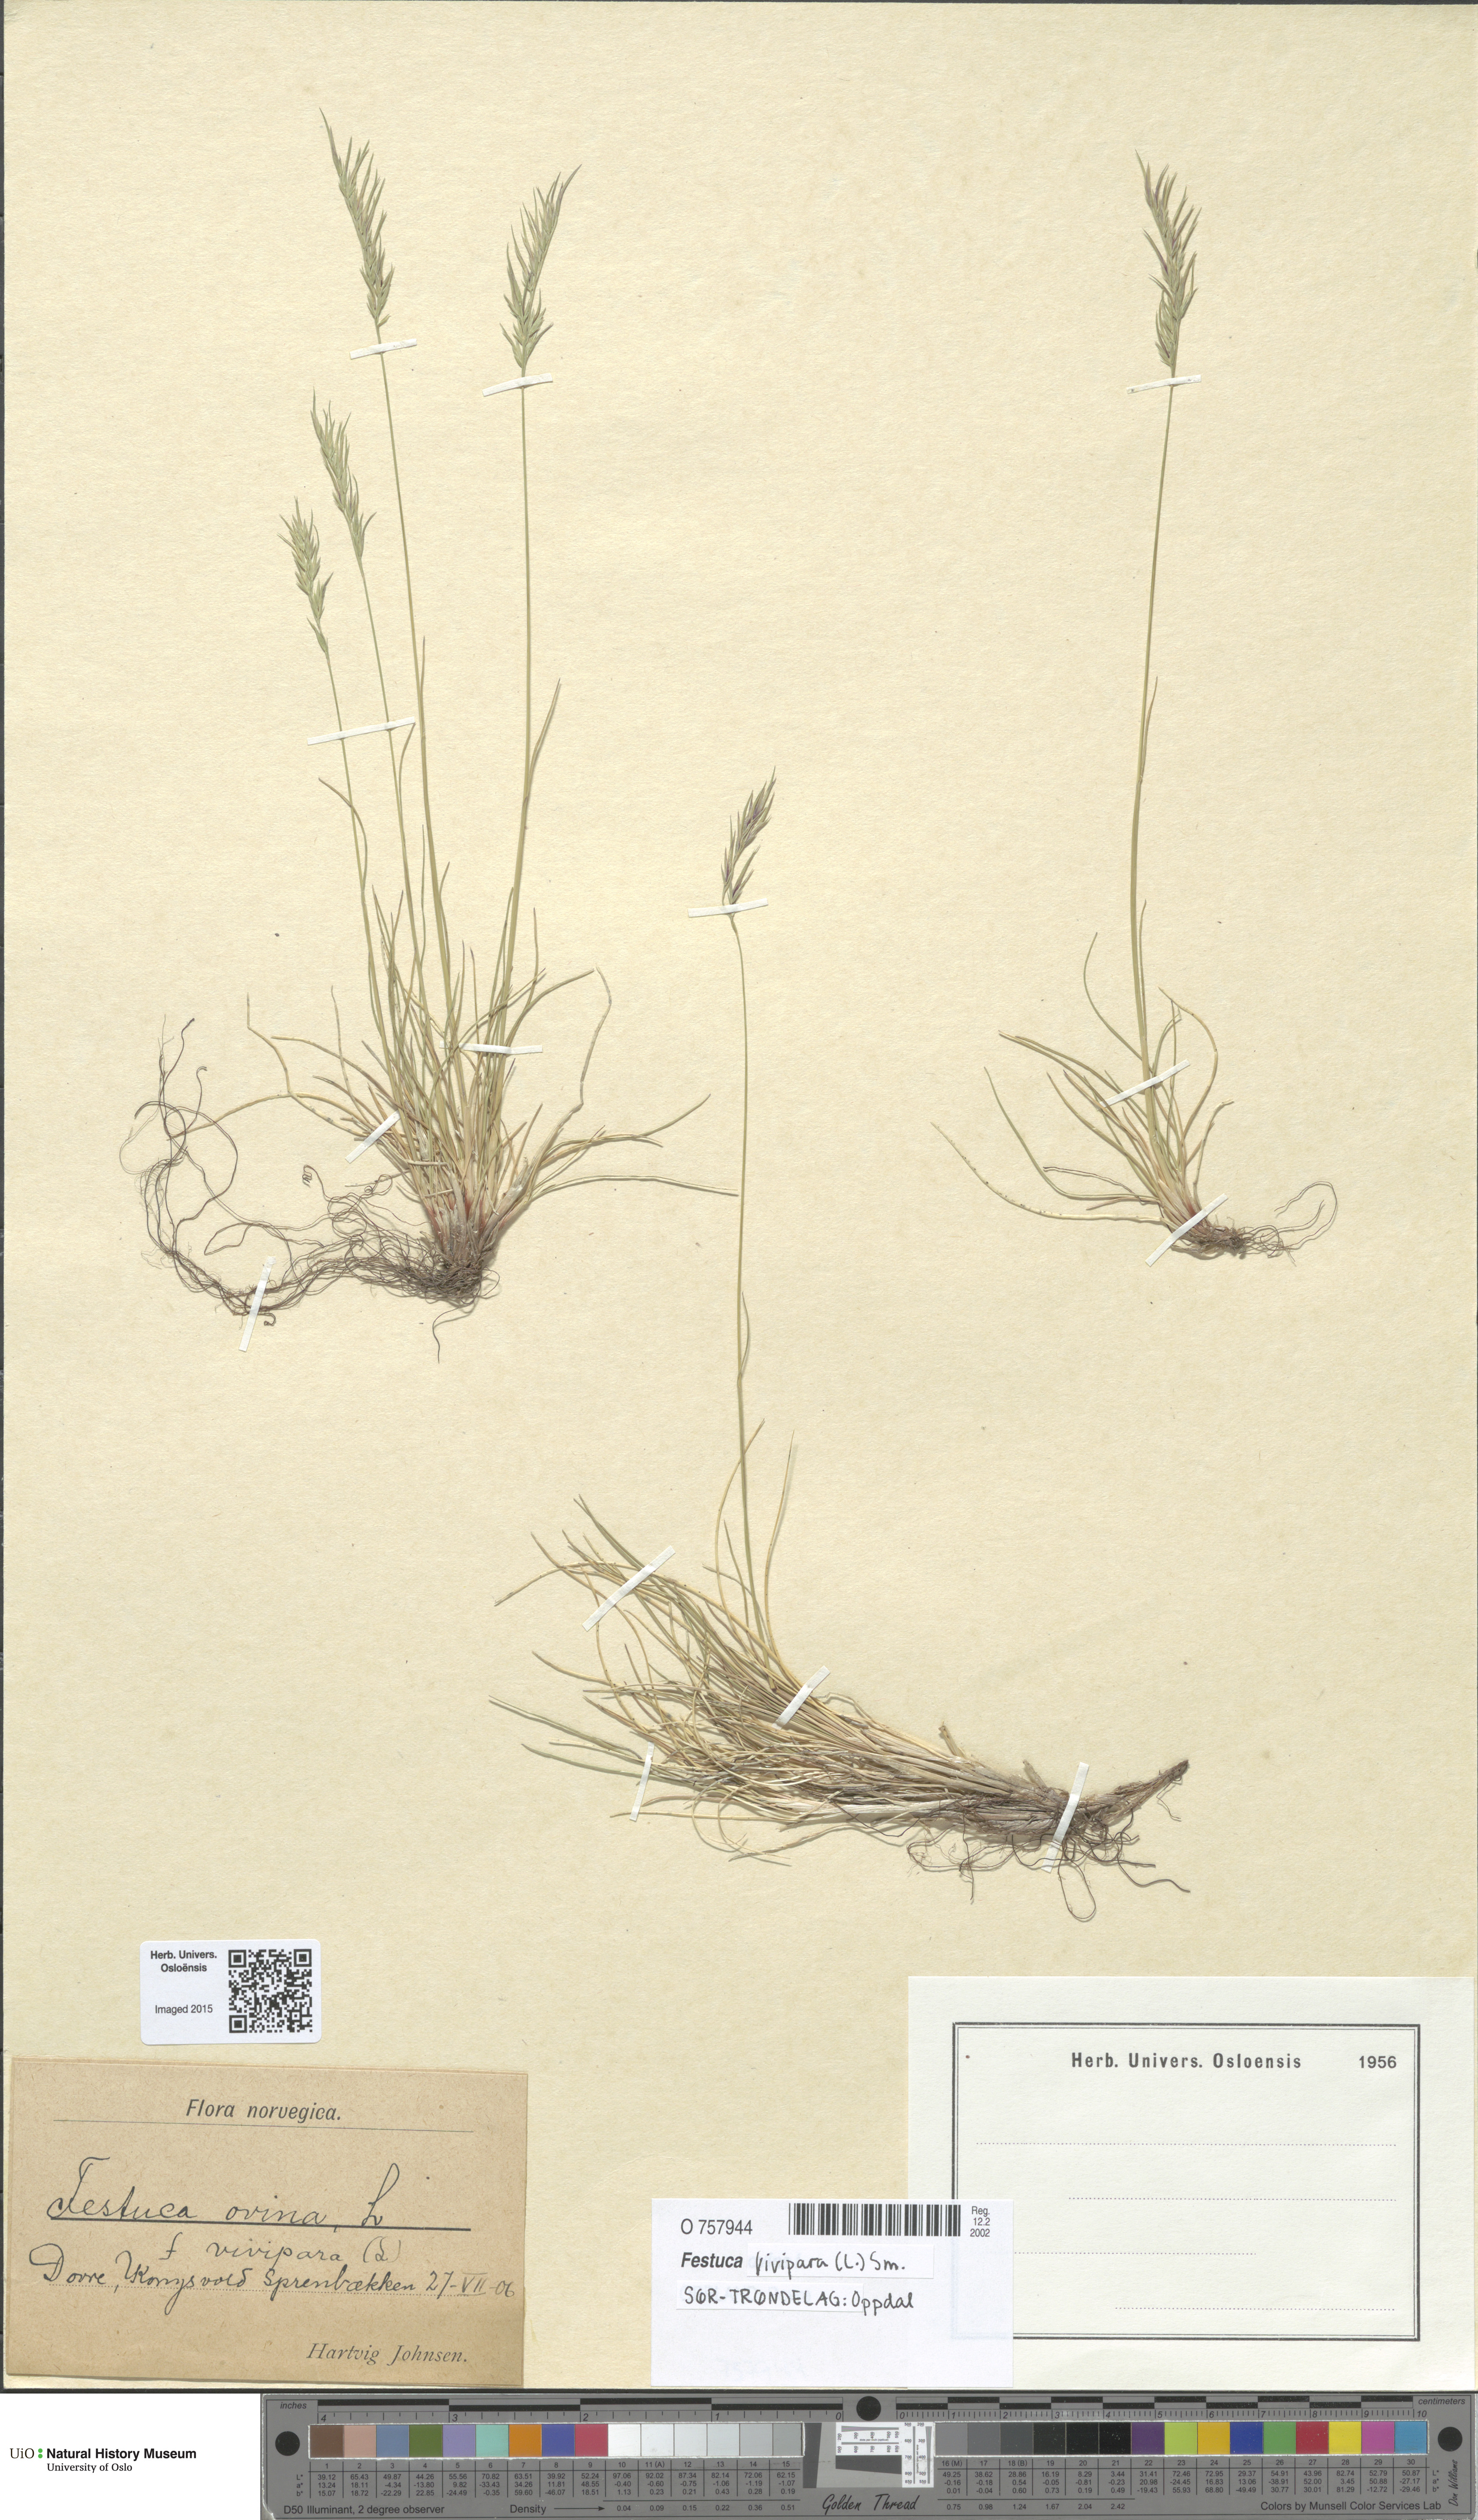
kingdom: Plantae
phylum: Tracheophyta
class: Liliopsida
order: Poales
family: Poaceae
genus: Festuca
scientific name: Festuca vivipara
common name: Viviparous sheep's-fescue
